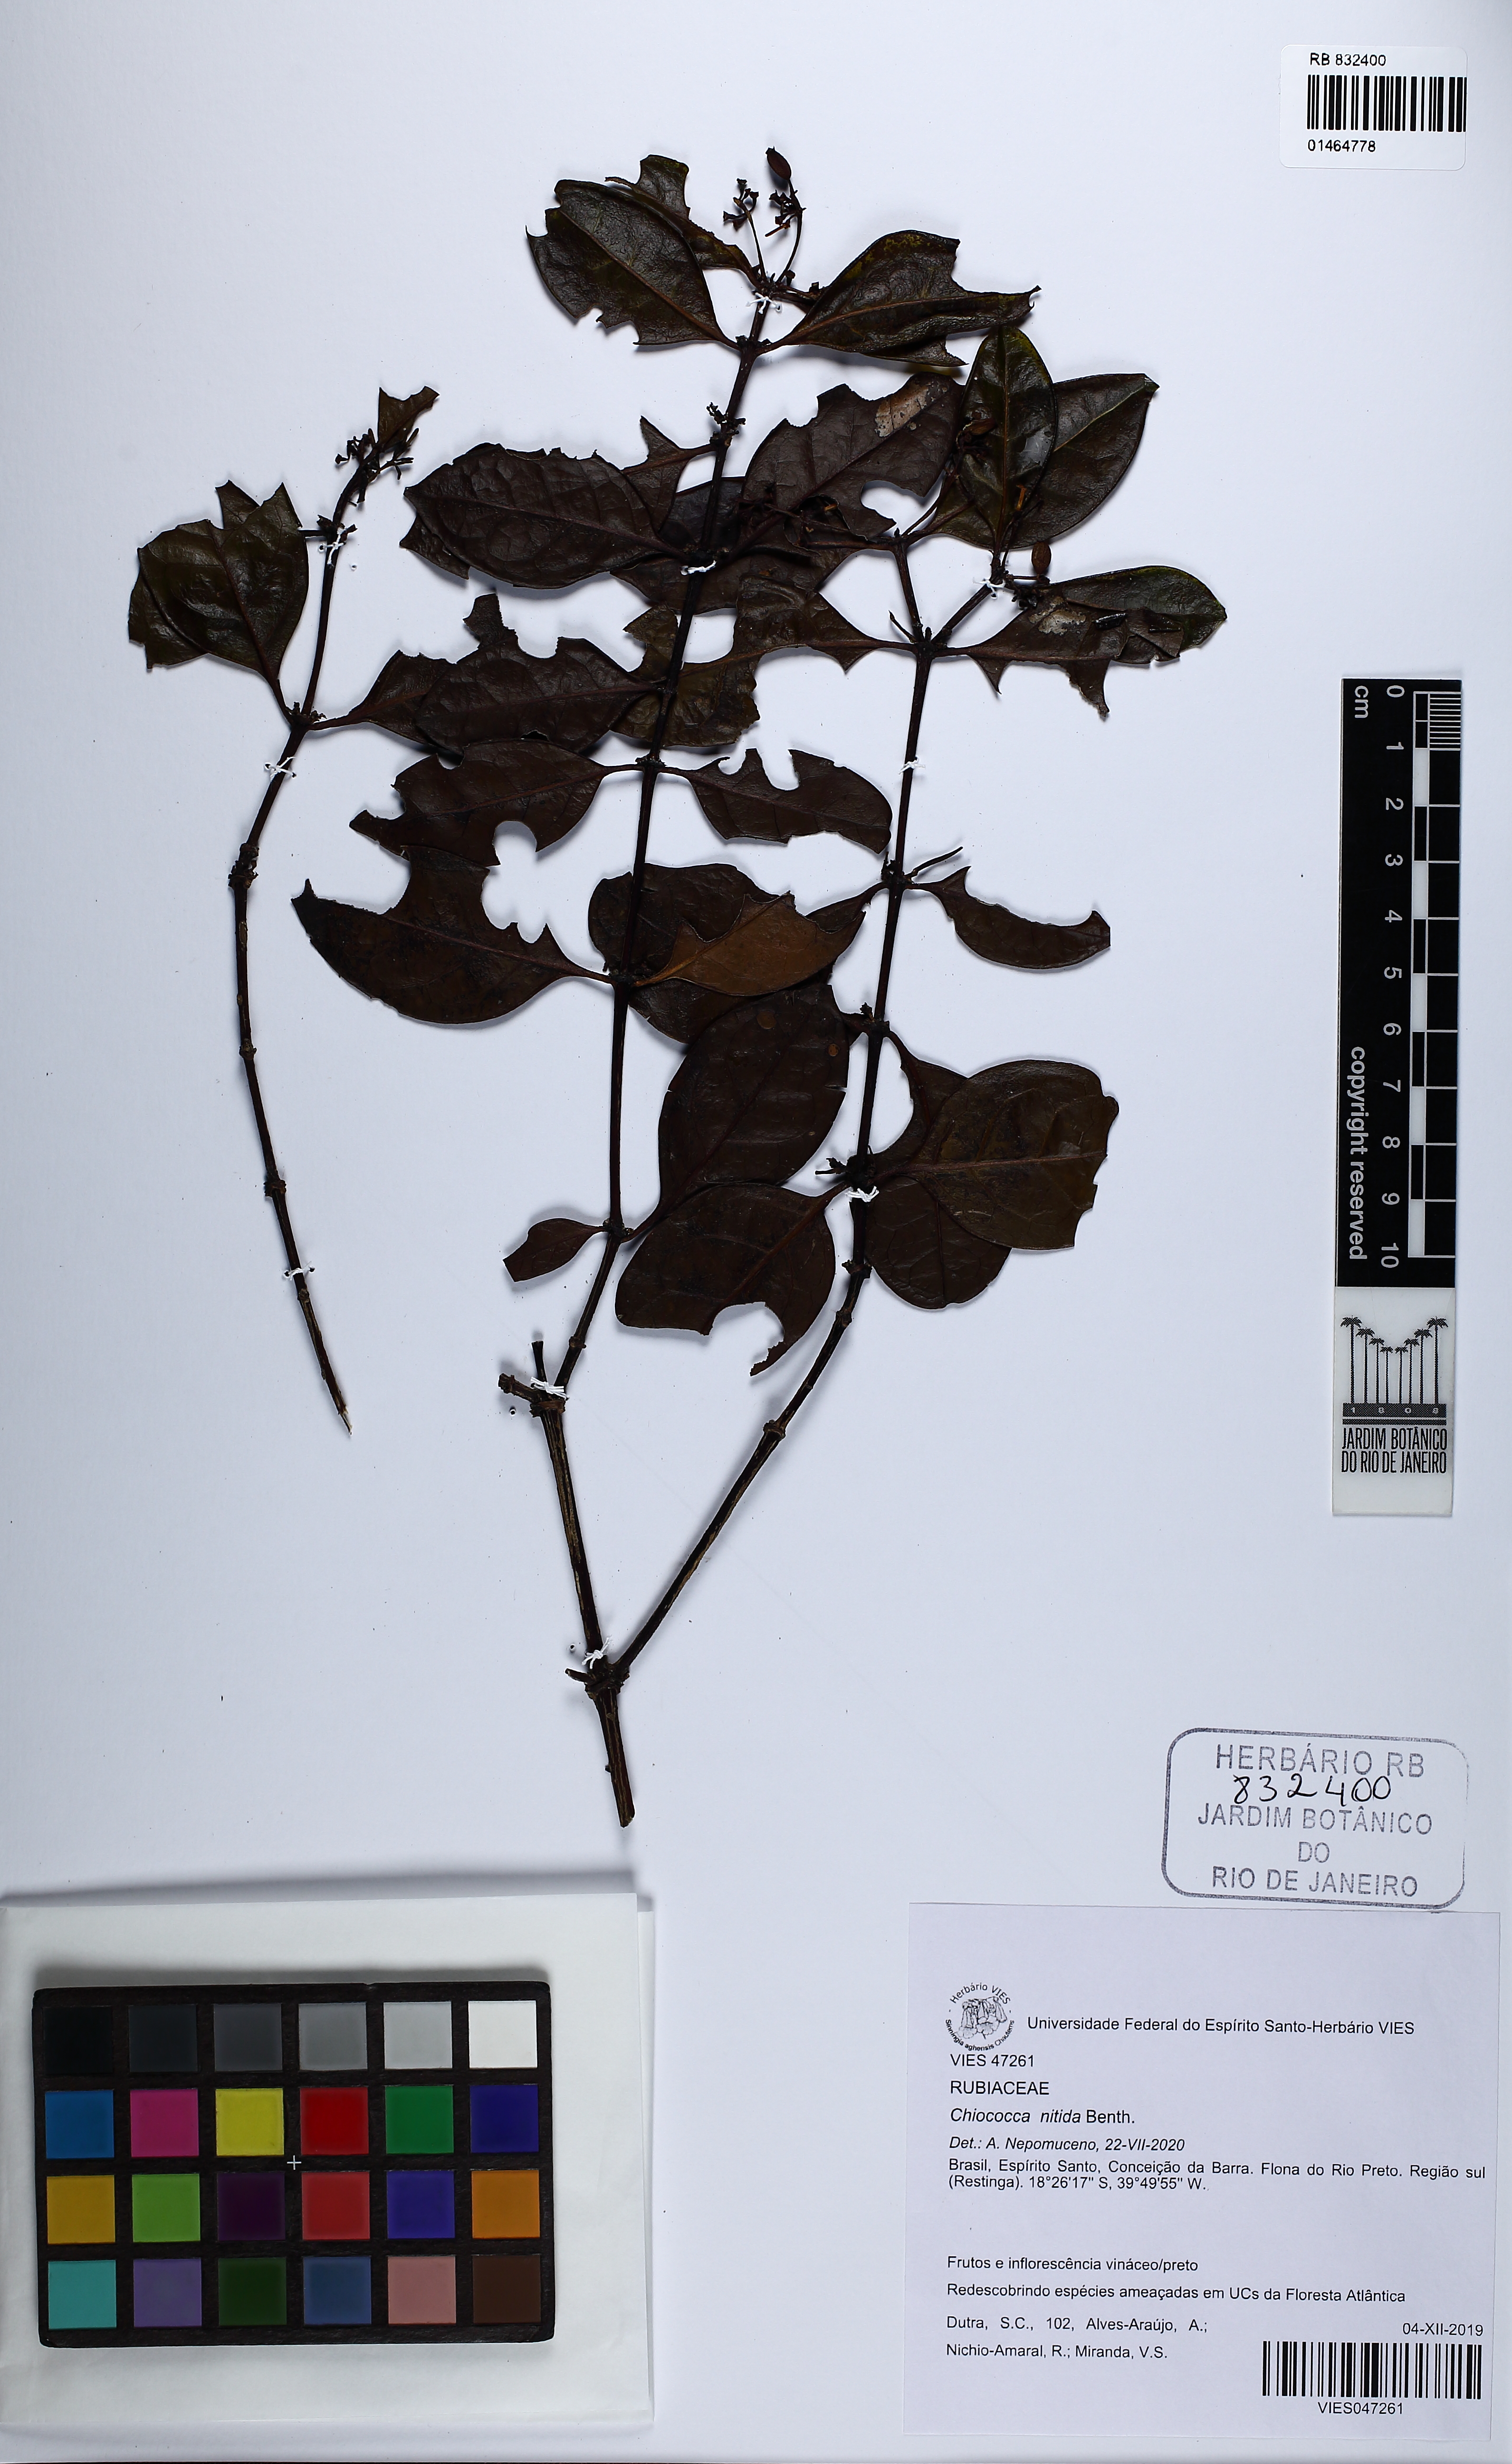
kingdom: Plantae
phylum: Tracheophyta
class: Magnoliopsida
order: Gentianales
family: Rubiaceae
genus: Chiococca
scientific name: Chiococca nitida
